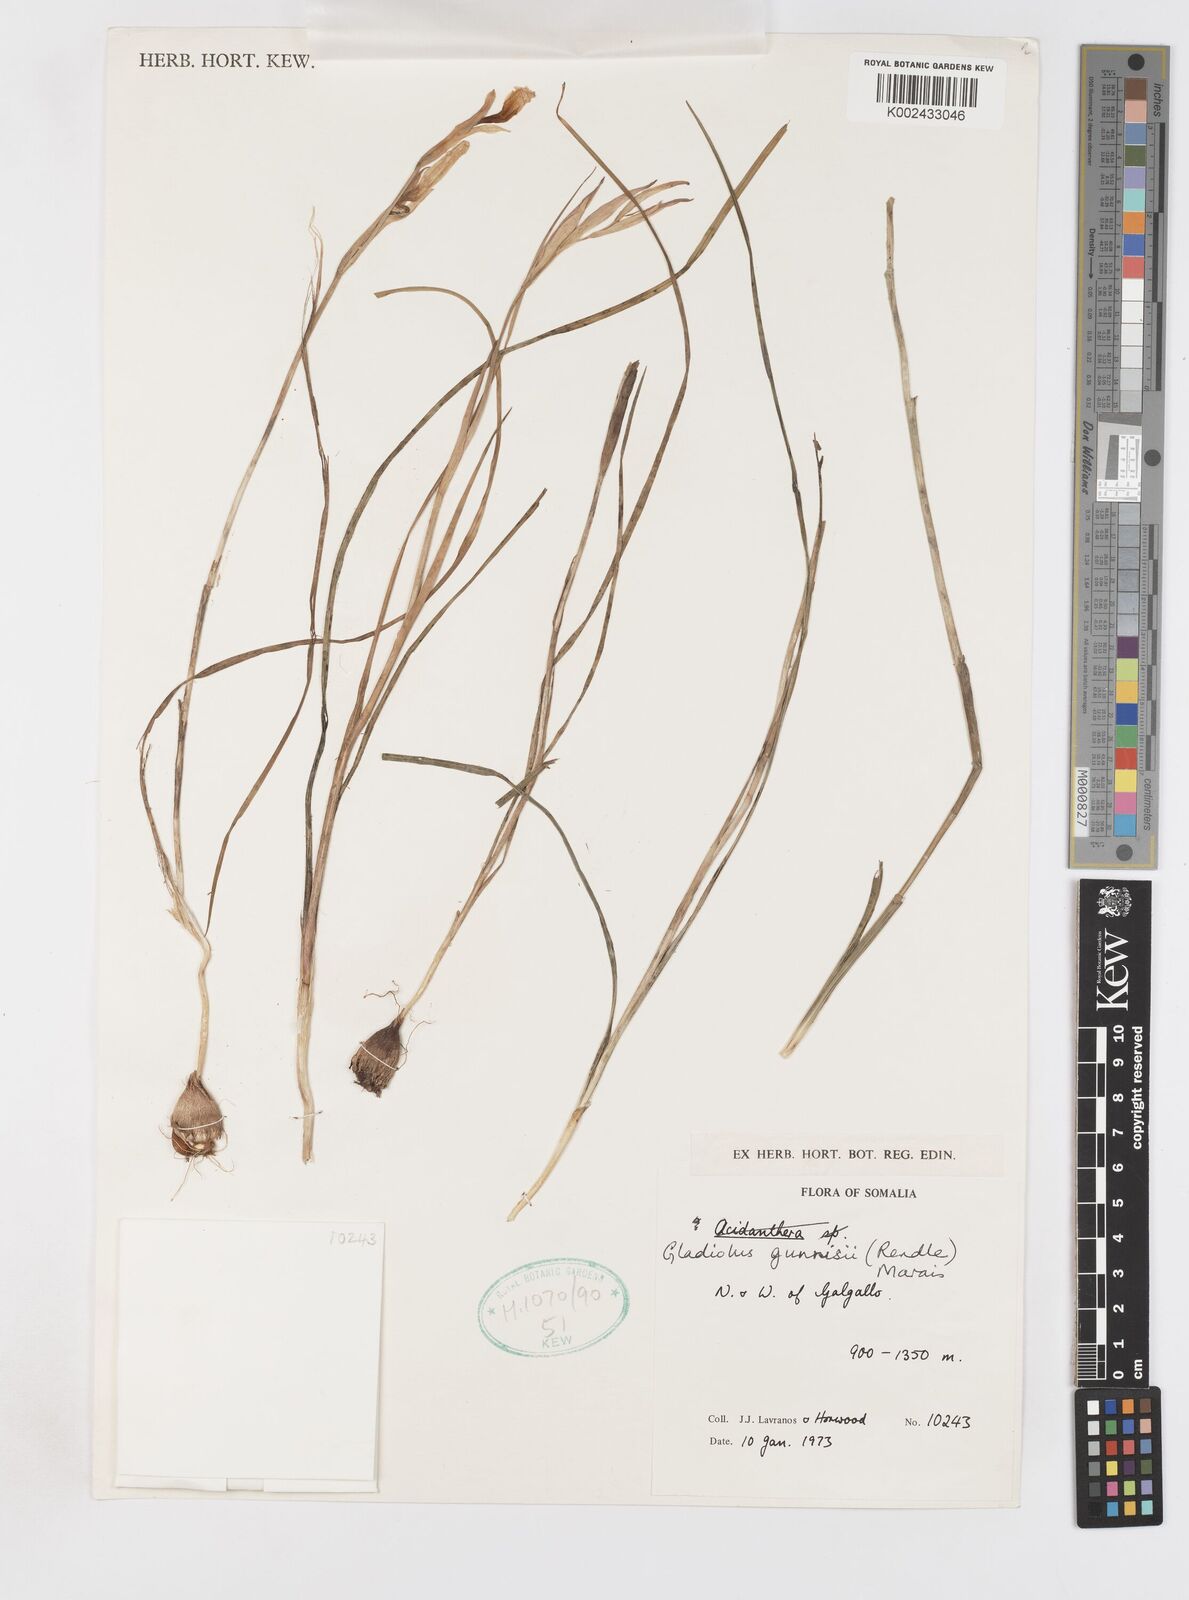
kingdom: Plantae
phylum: Tracheophyta
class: Liliopsida
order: Asparagales
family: Iridaceae
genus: Gladiolus
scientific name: Gladiolus gunnisii
